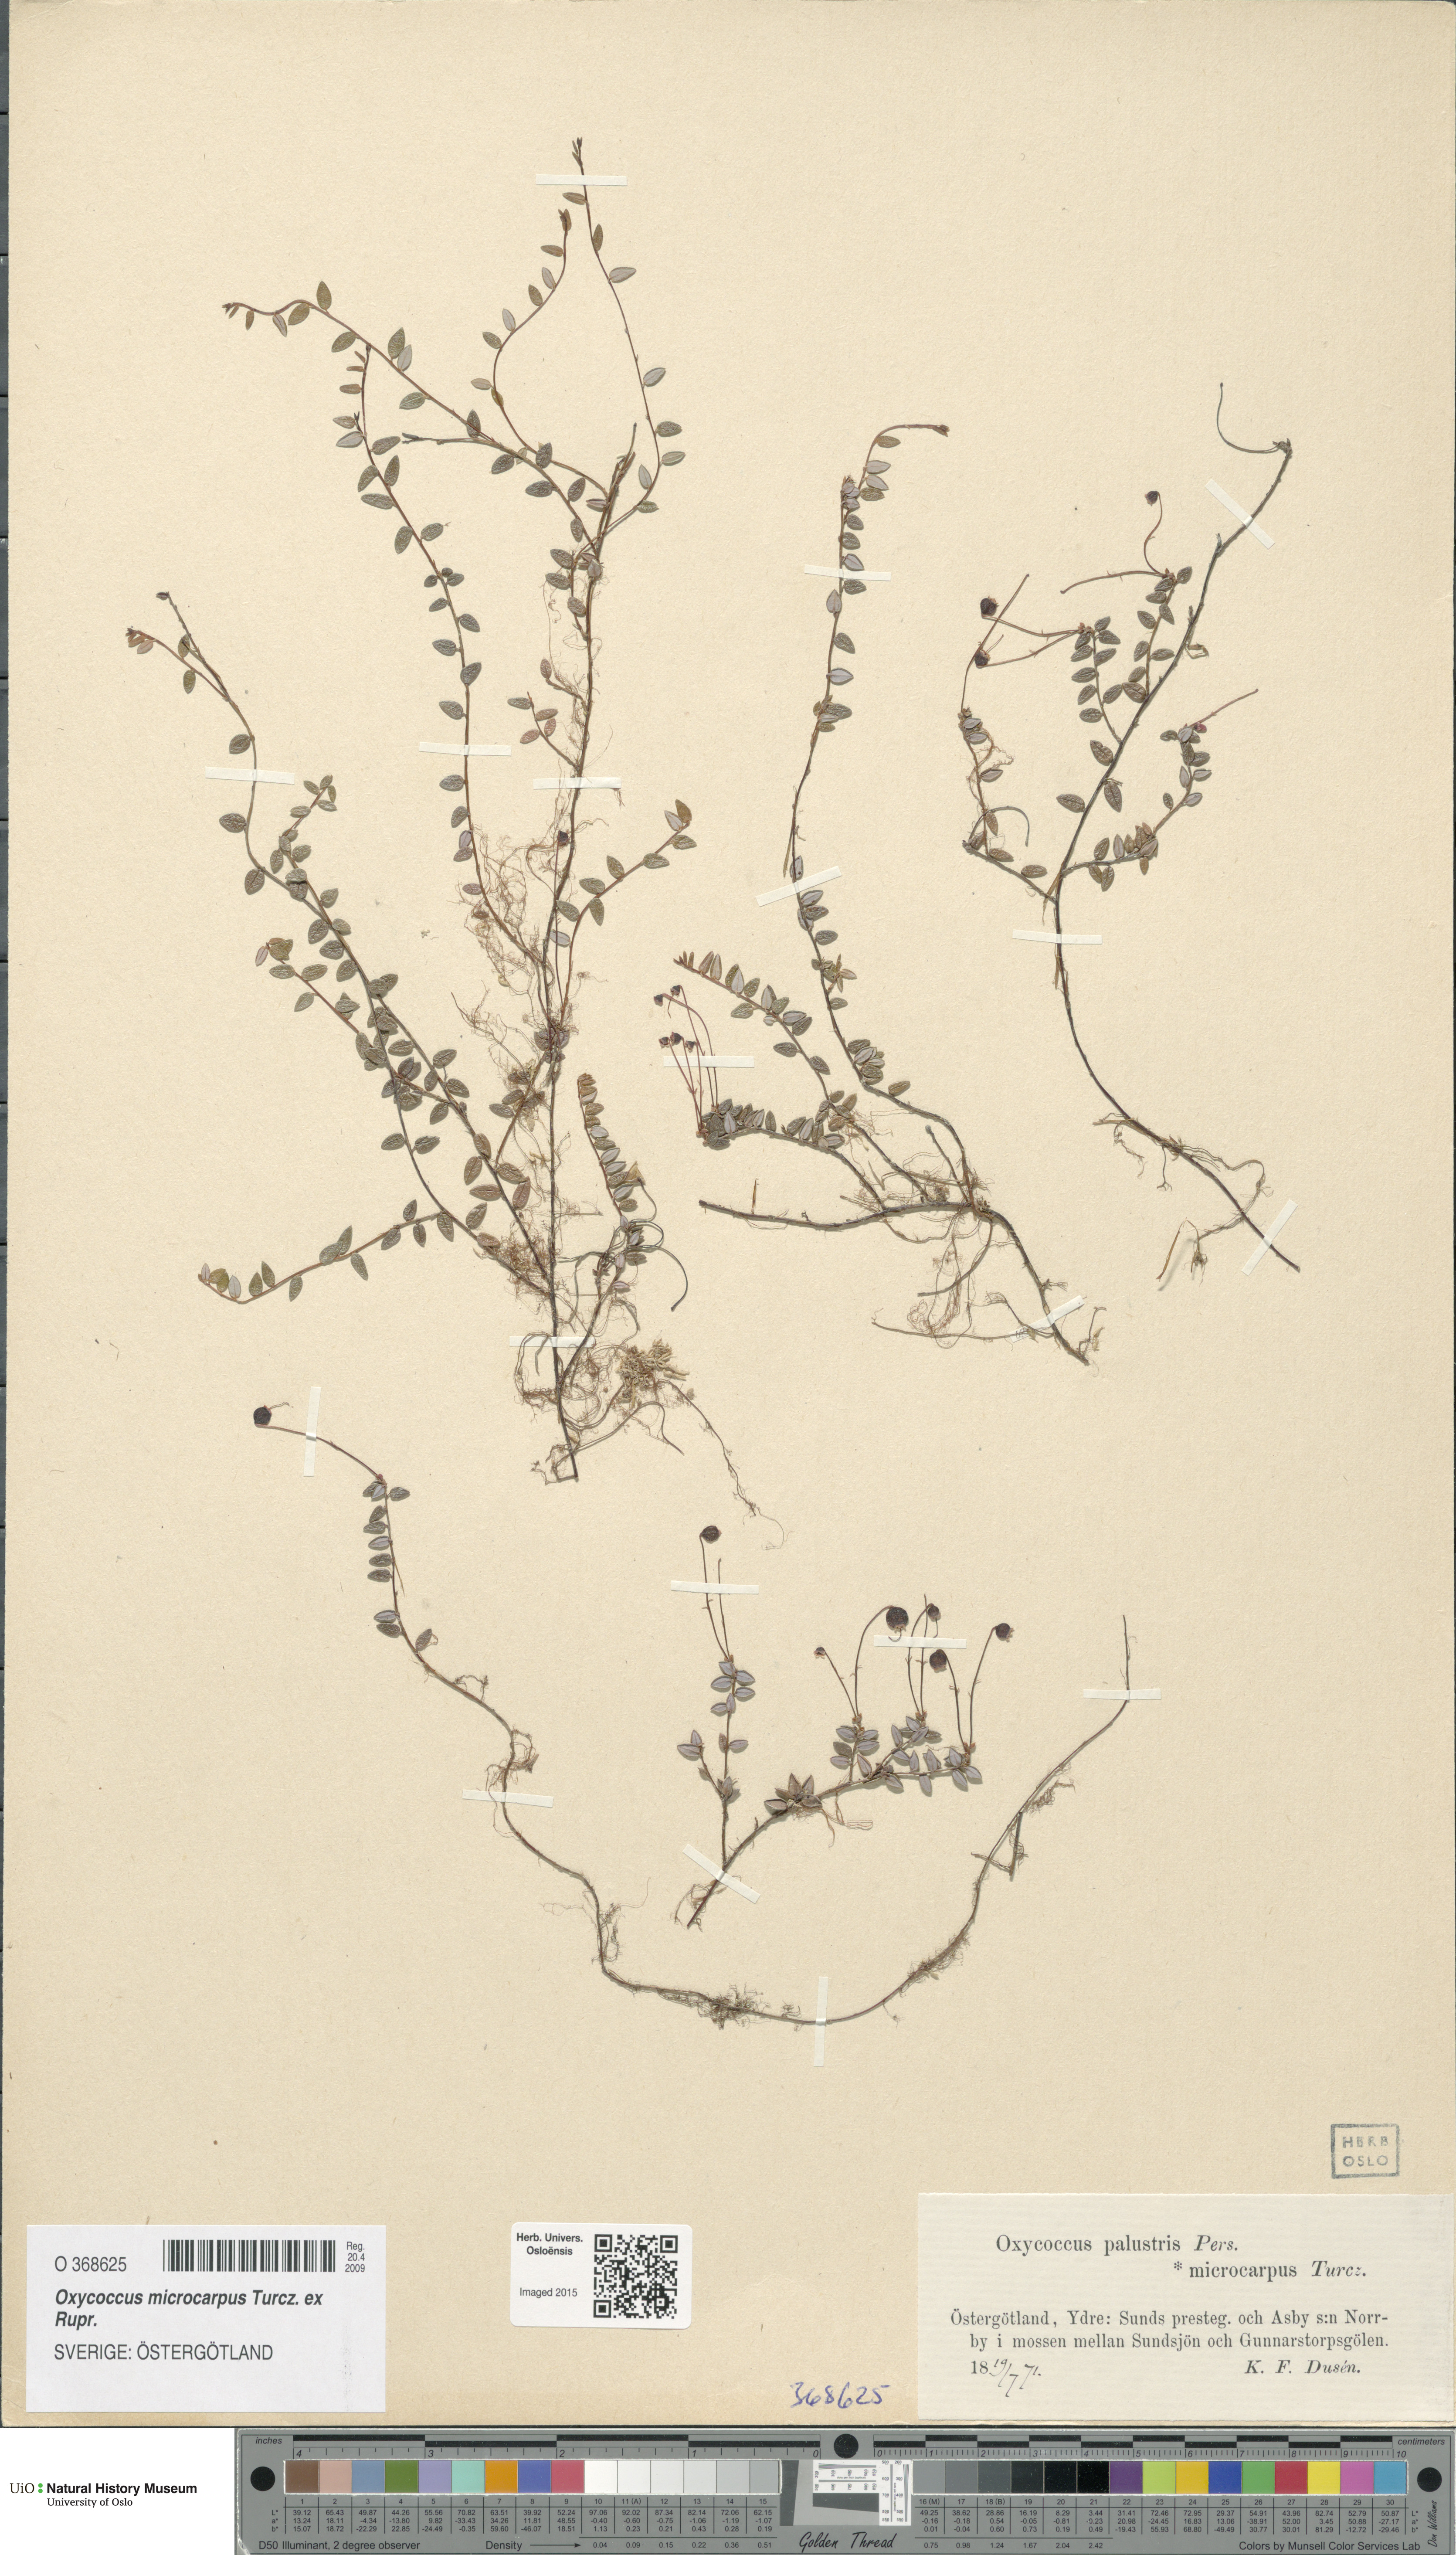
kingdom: Plantae
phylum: Tracheophyta
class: Magnoliopsida
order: Ericales
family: Ericaceae
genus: Vaccinium
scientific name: Vaccinium microcarpum
